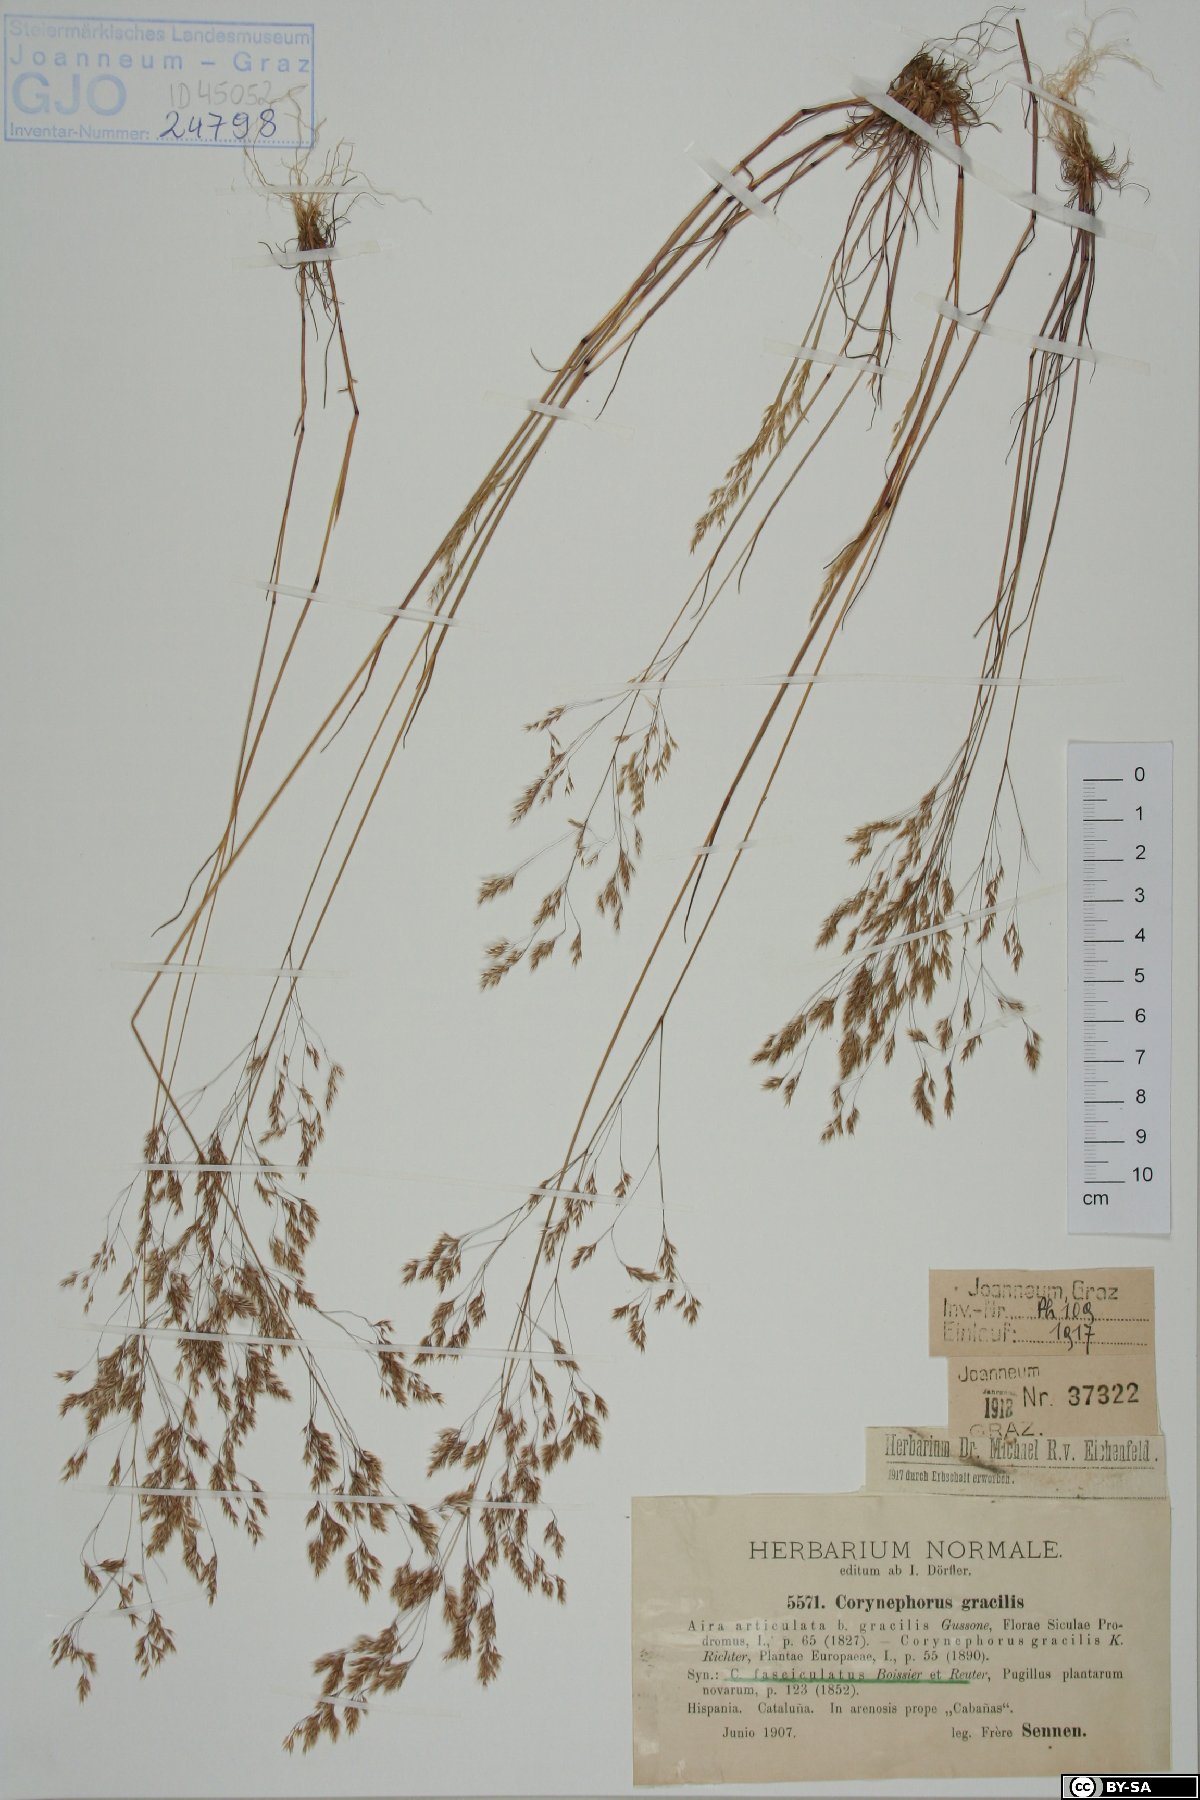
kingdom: Plantae
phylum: Tracheophyta
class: Liliopsida
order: Poales
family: Poaceae
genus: Corynephorus
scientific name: Corynephorus fasciculatus
